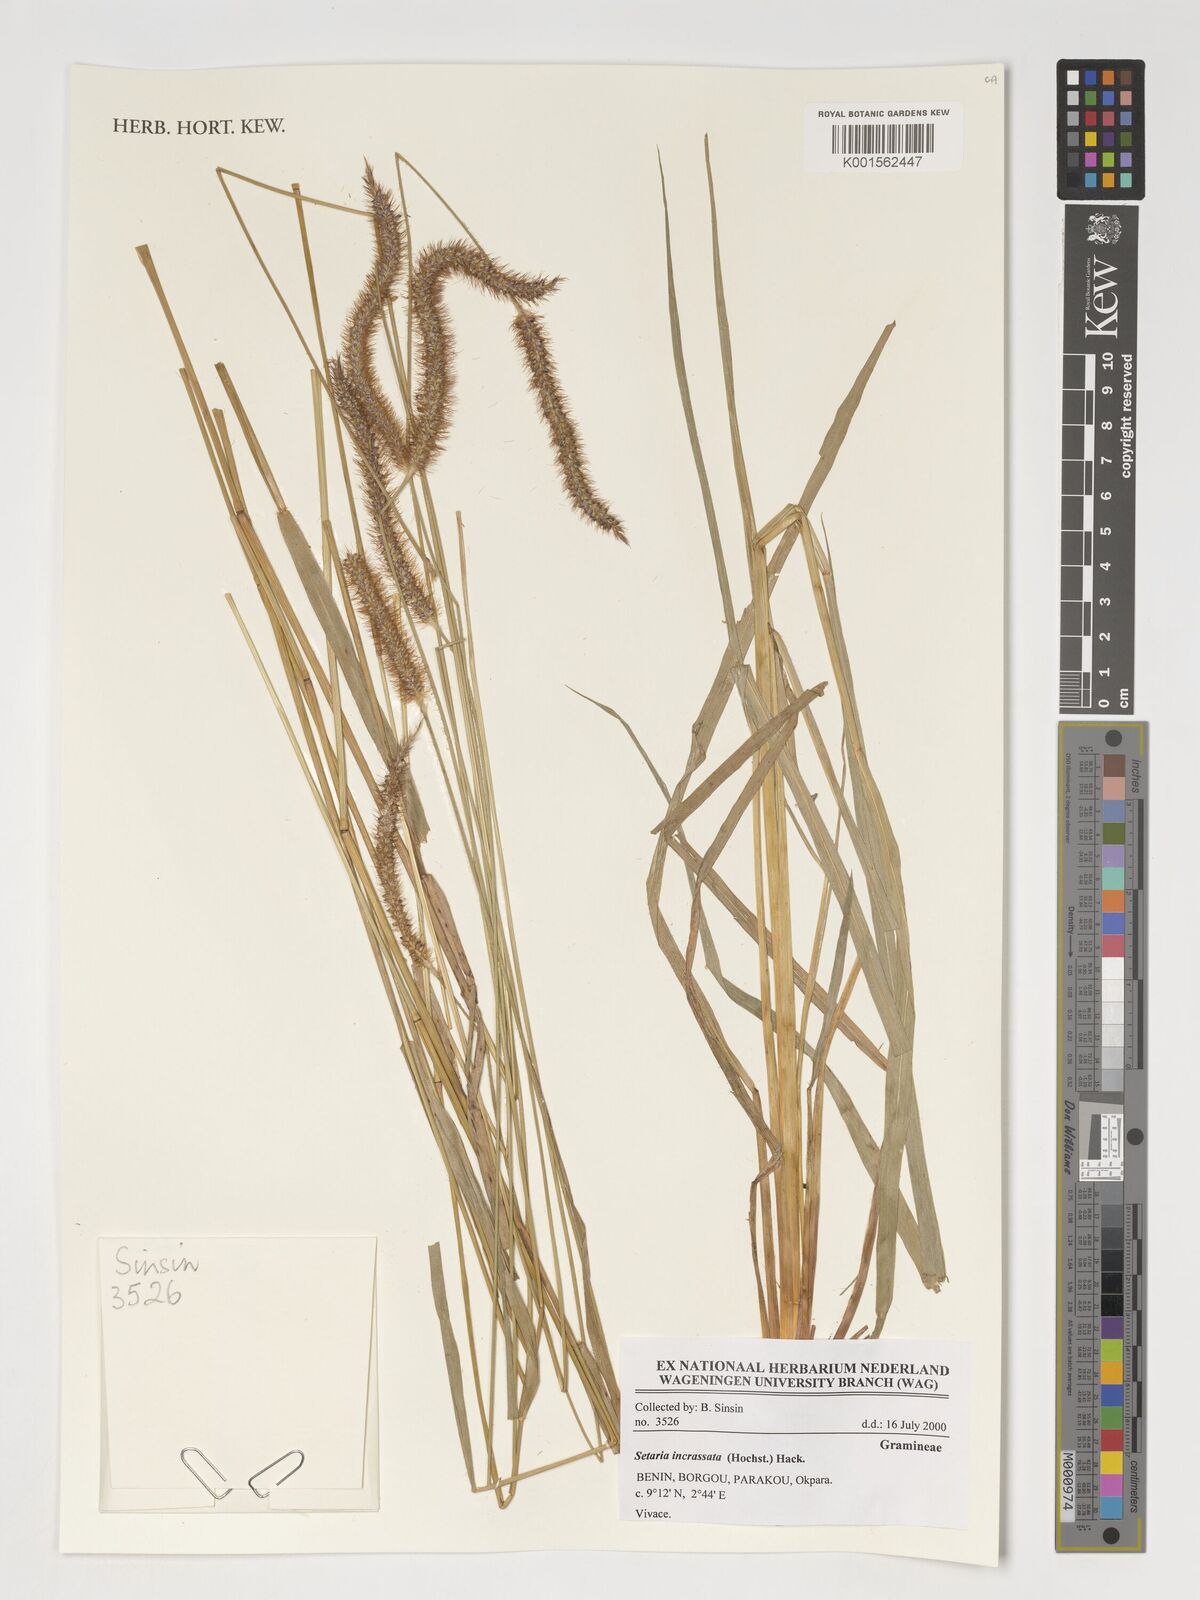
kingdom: Plantae
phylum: Tracheophyta
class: Liliopsida
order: Poales
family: Poaceae
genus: Setaria
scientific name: Setaria incrassata
